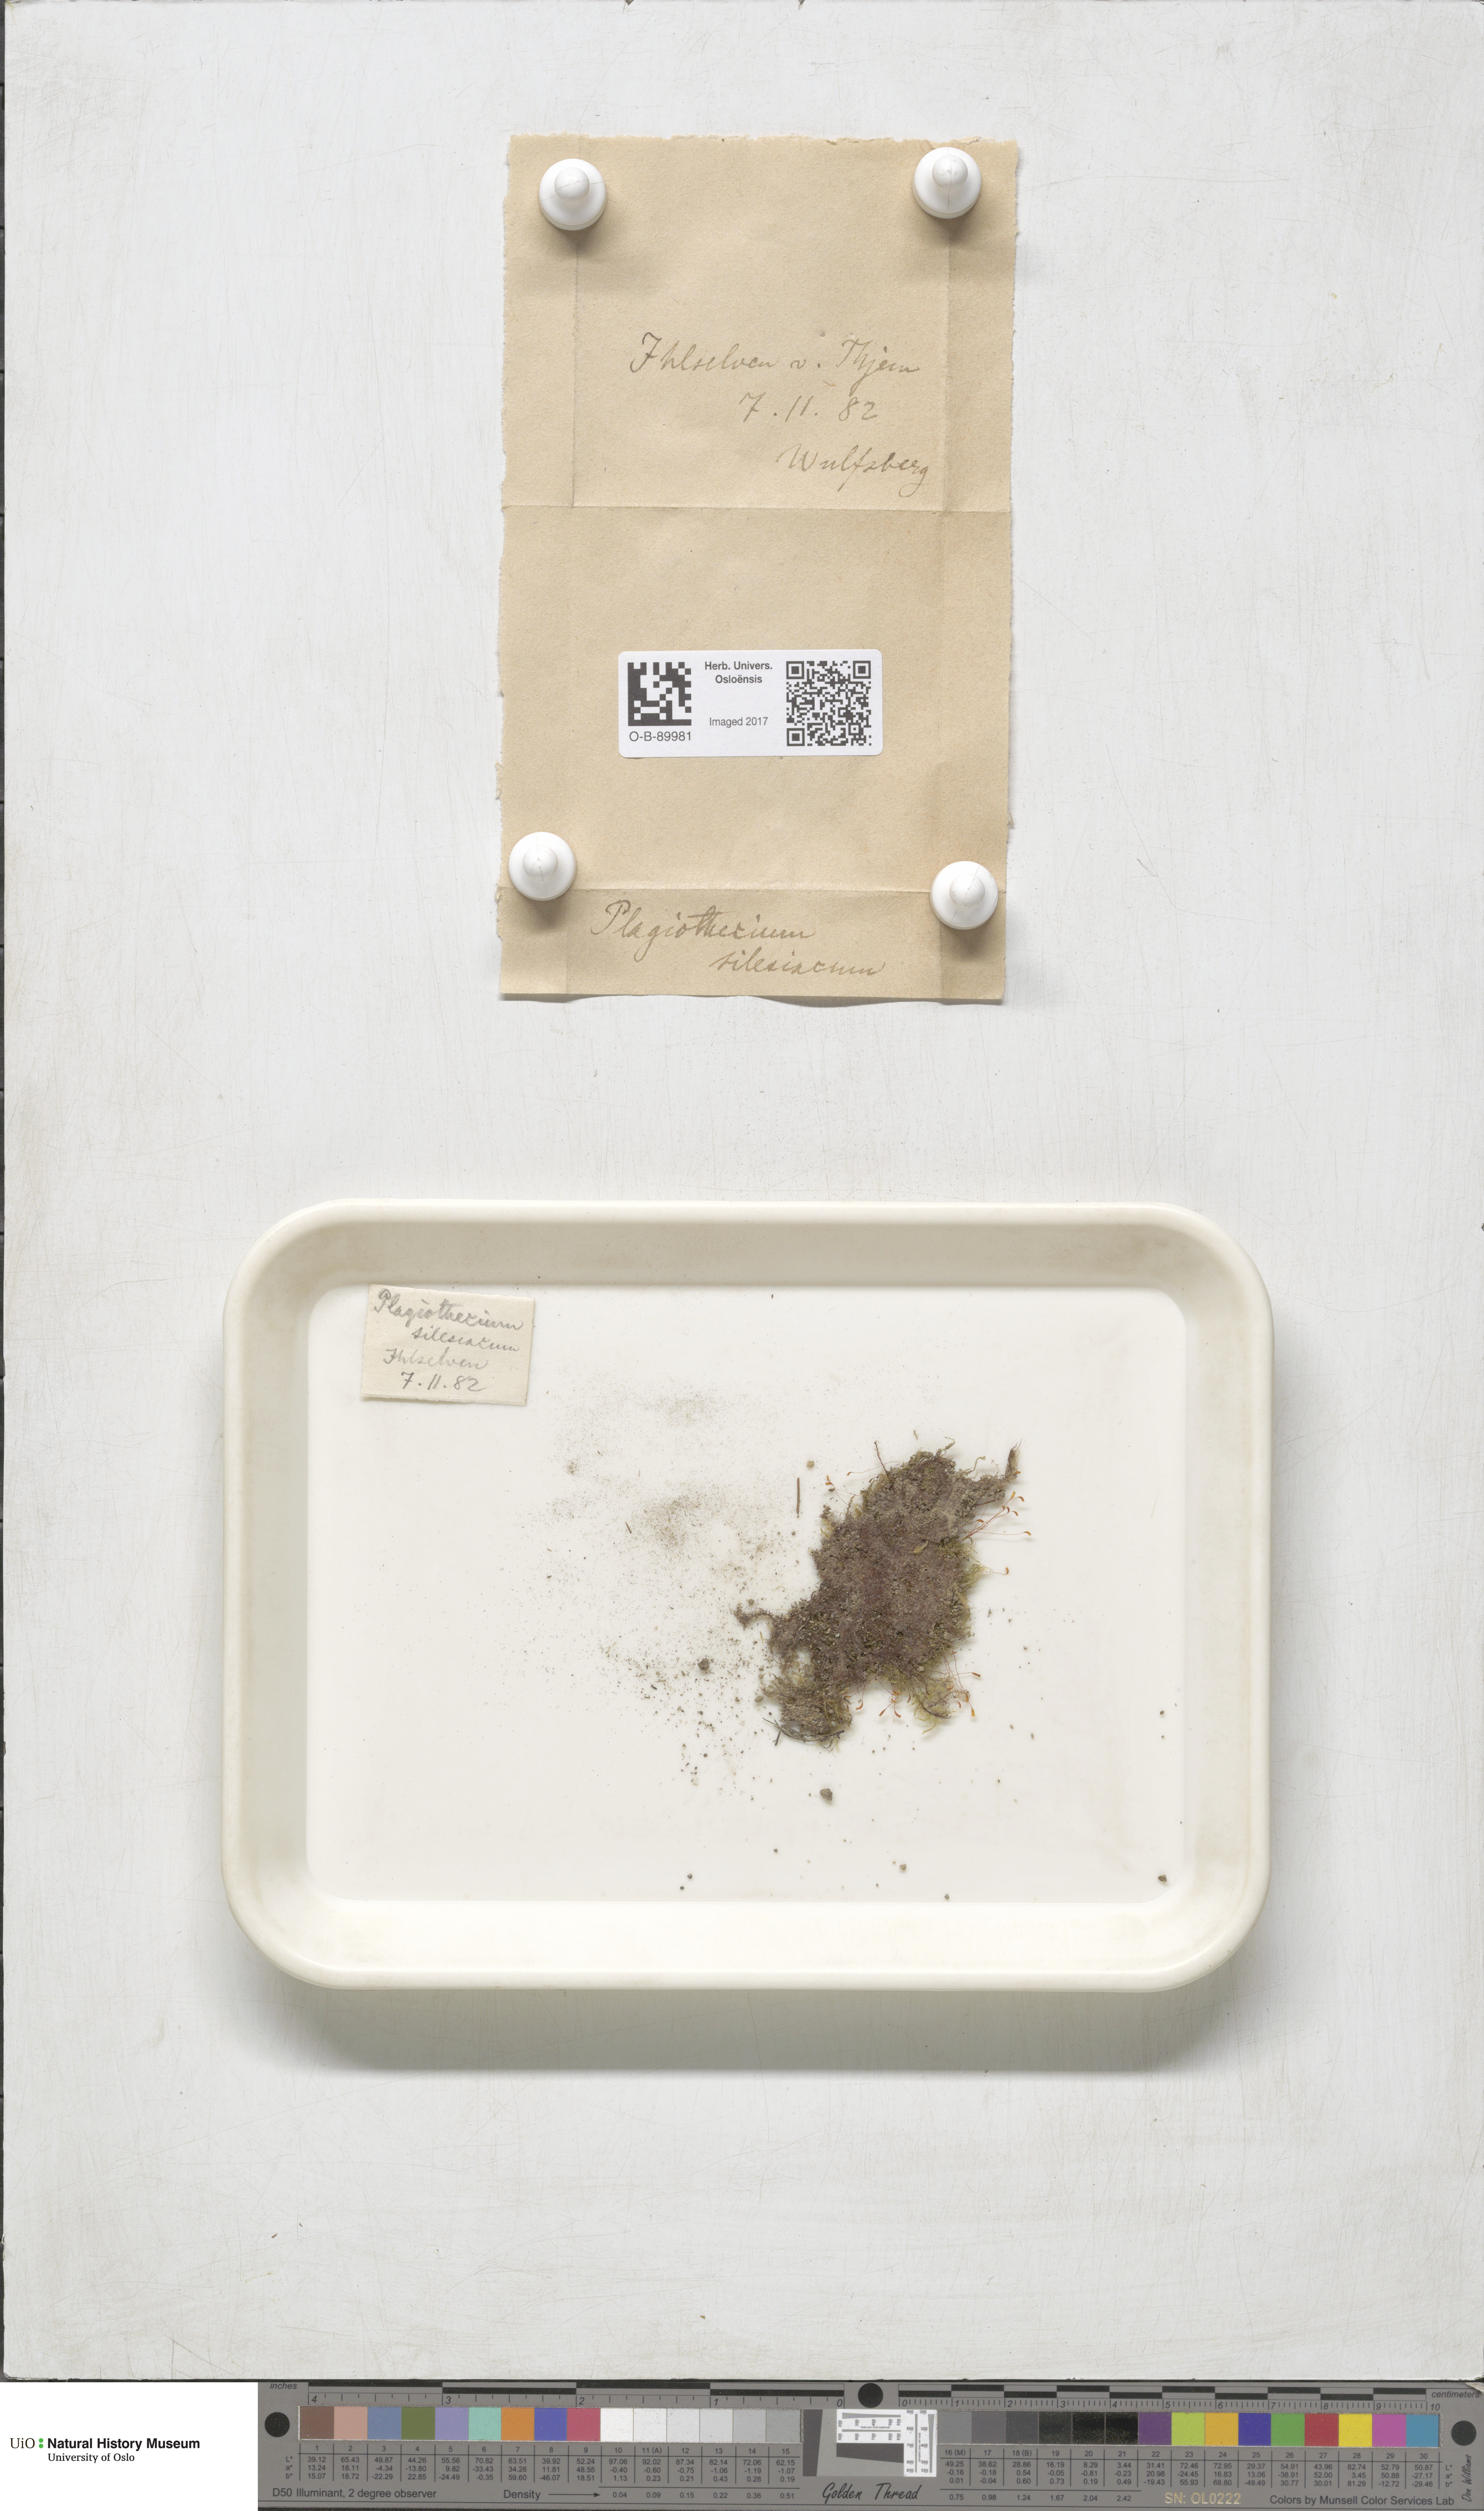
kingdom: Plantae
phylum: Bryophyta
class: Bryopsida
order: Hypnales
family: Plagiotheciaceae
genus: Herzogiella
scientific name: Herzogiella seligeri
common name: Silesian feather-moss
